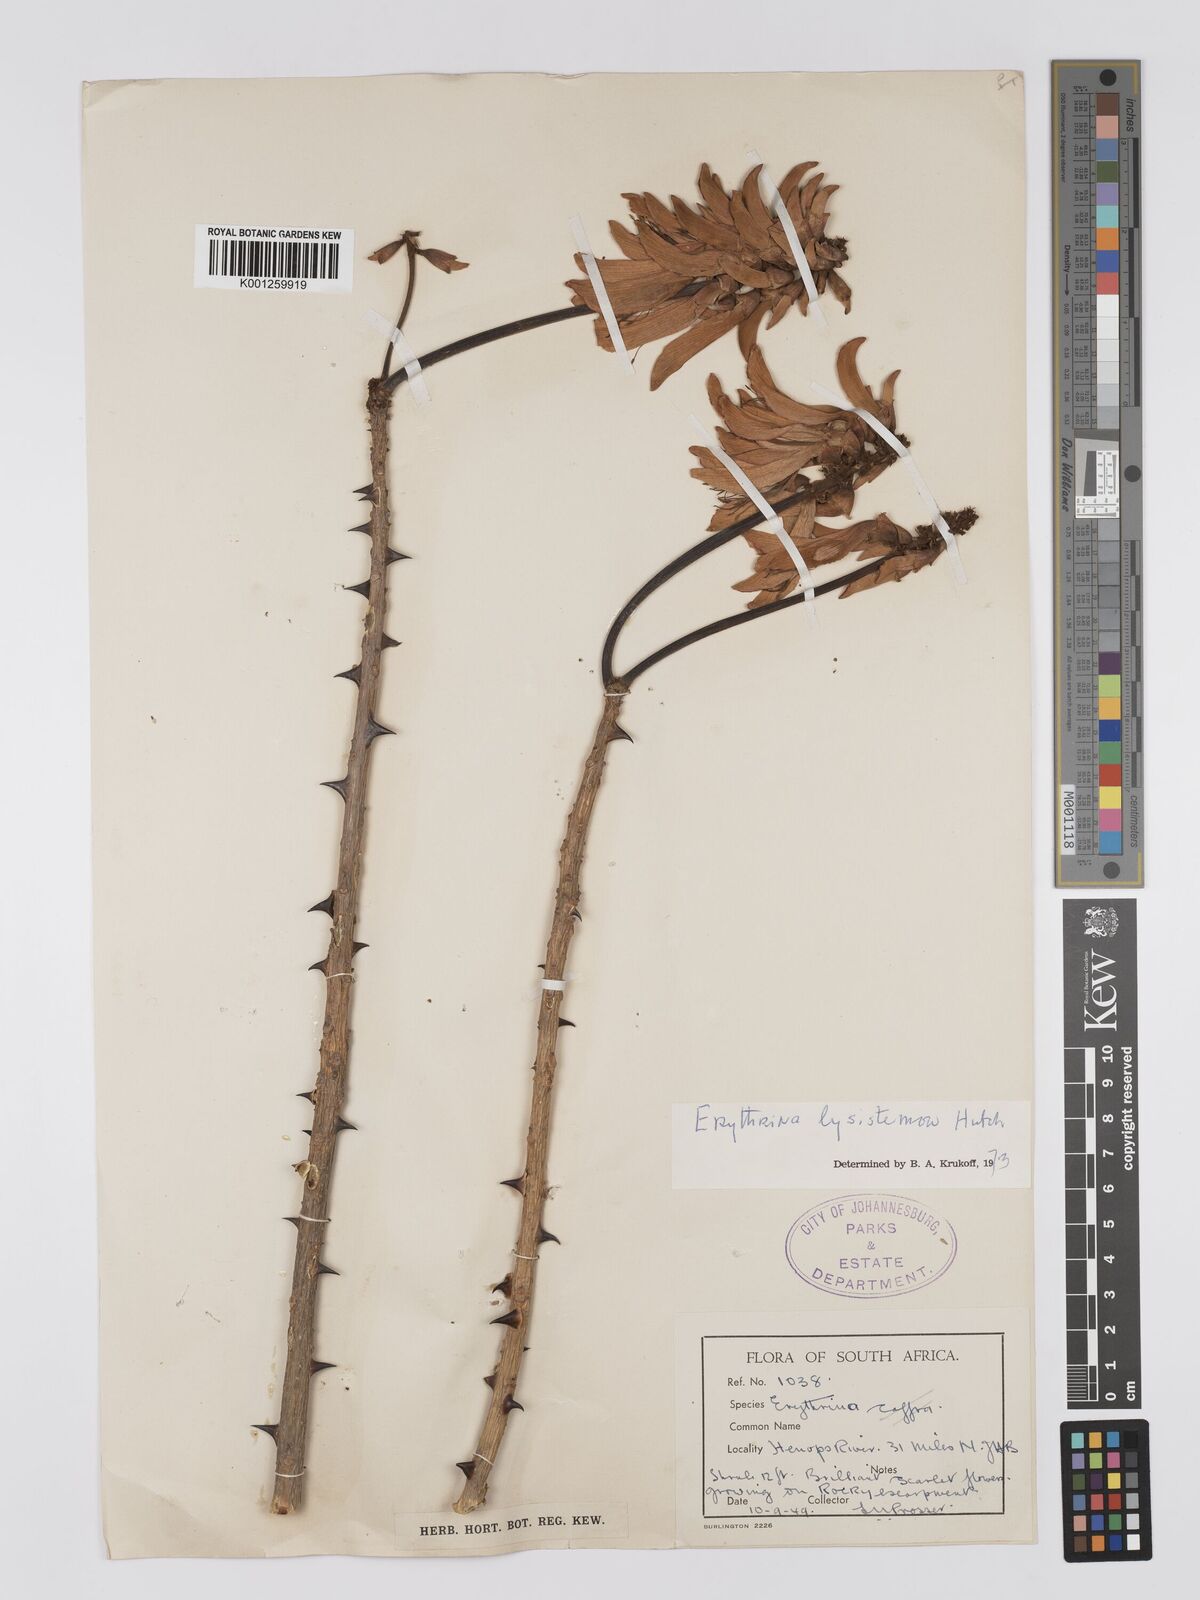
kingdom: Plantae
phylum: Tracheophyta
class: Magnoliopsida
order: Fabales
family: Fabaceae
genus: Erythrina
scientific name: Erythrina lysistemon
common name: Common coral tree
